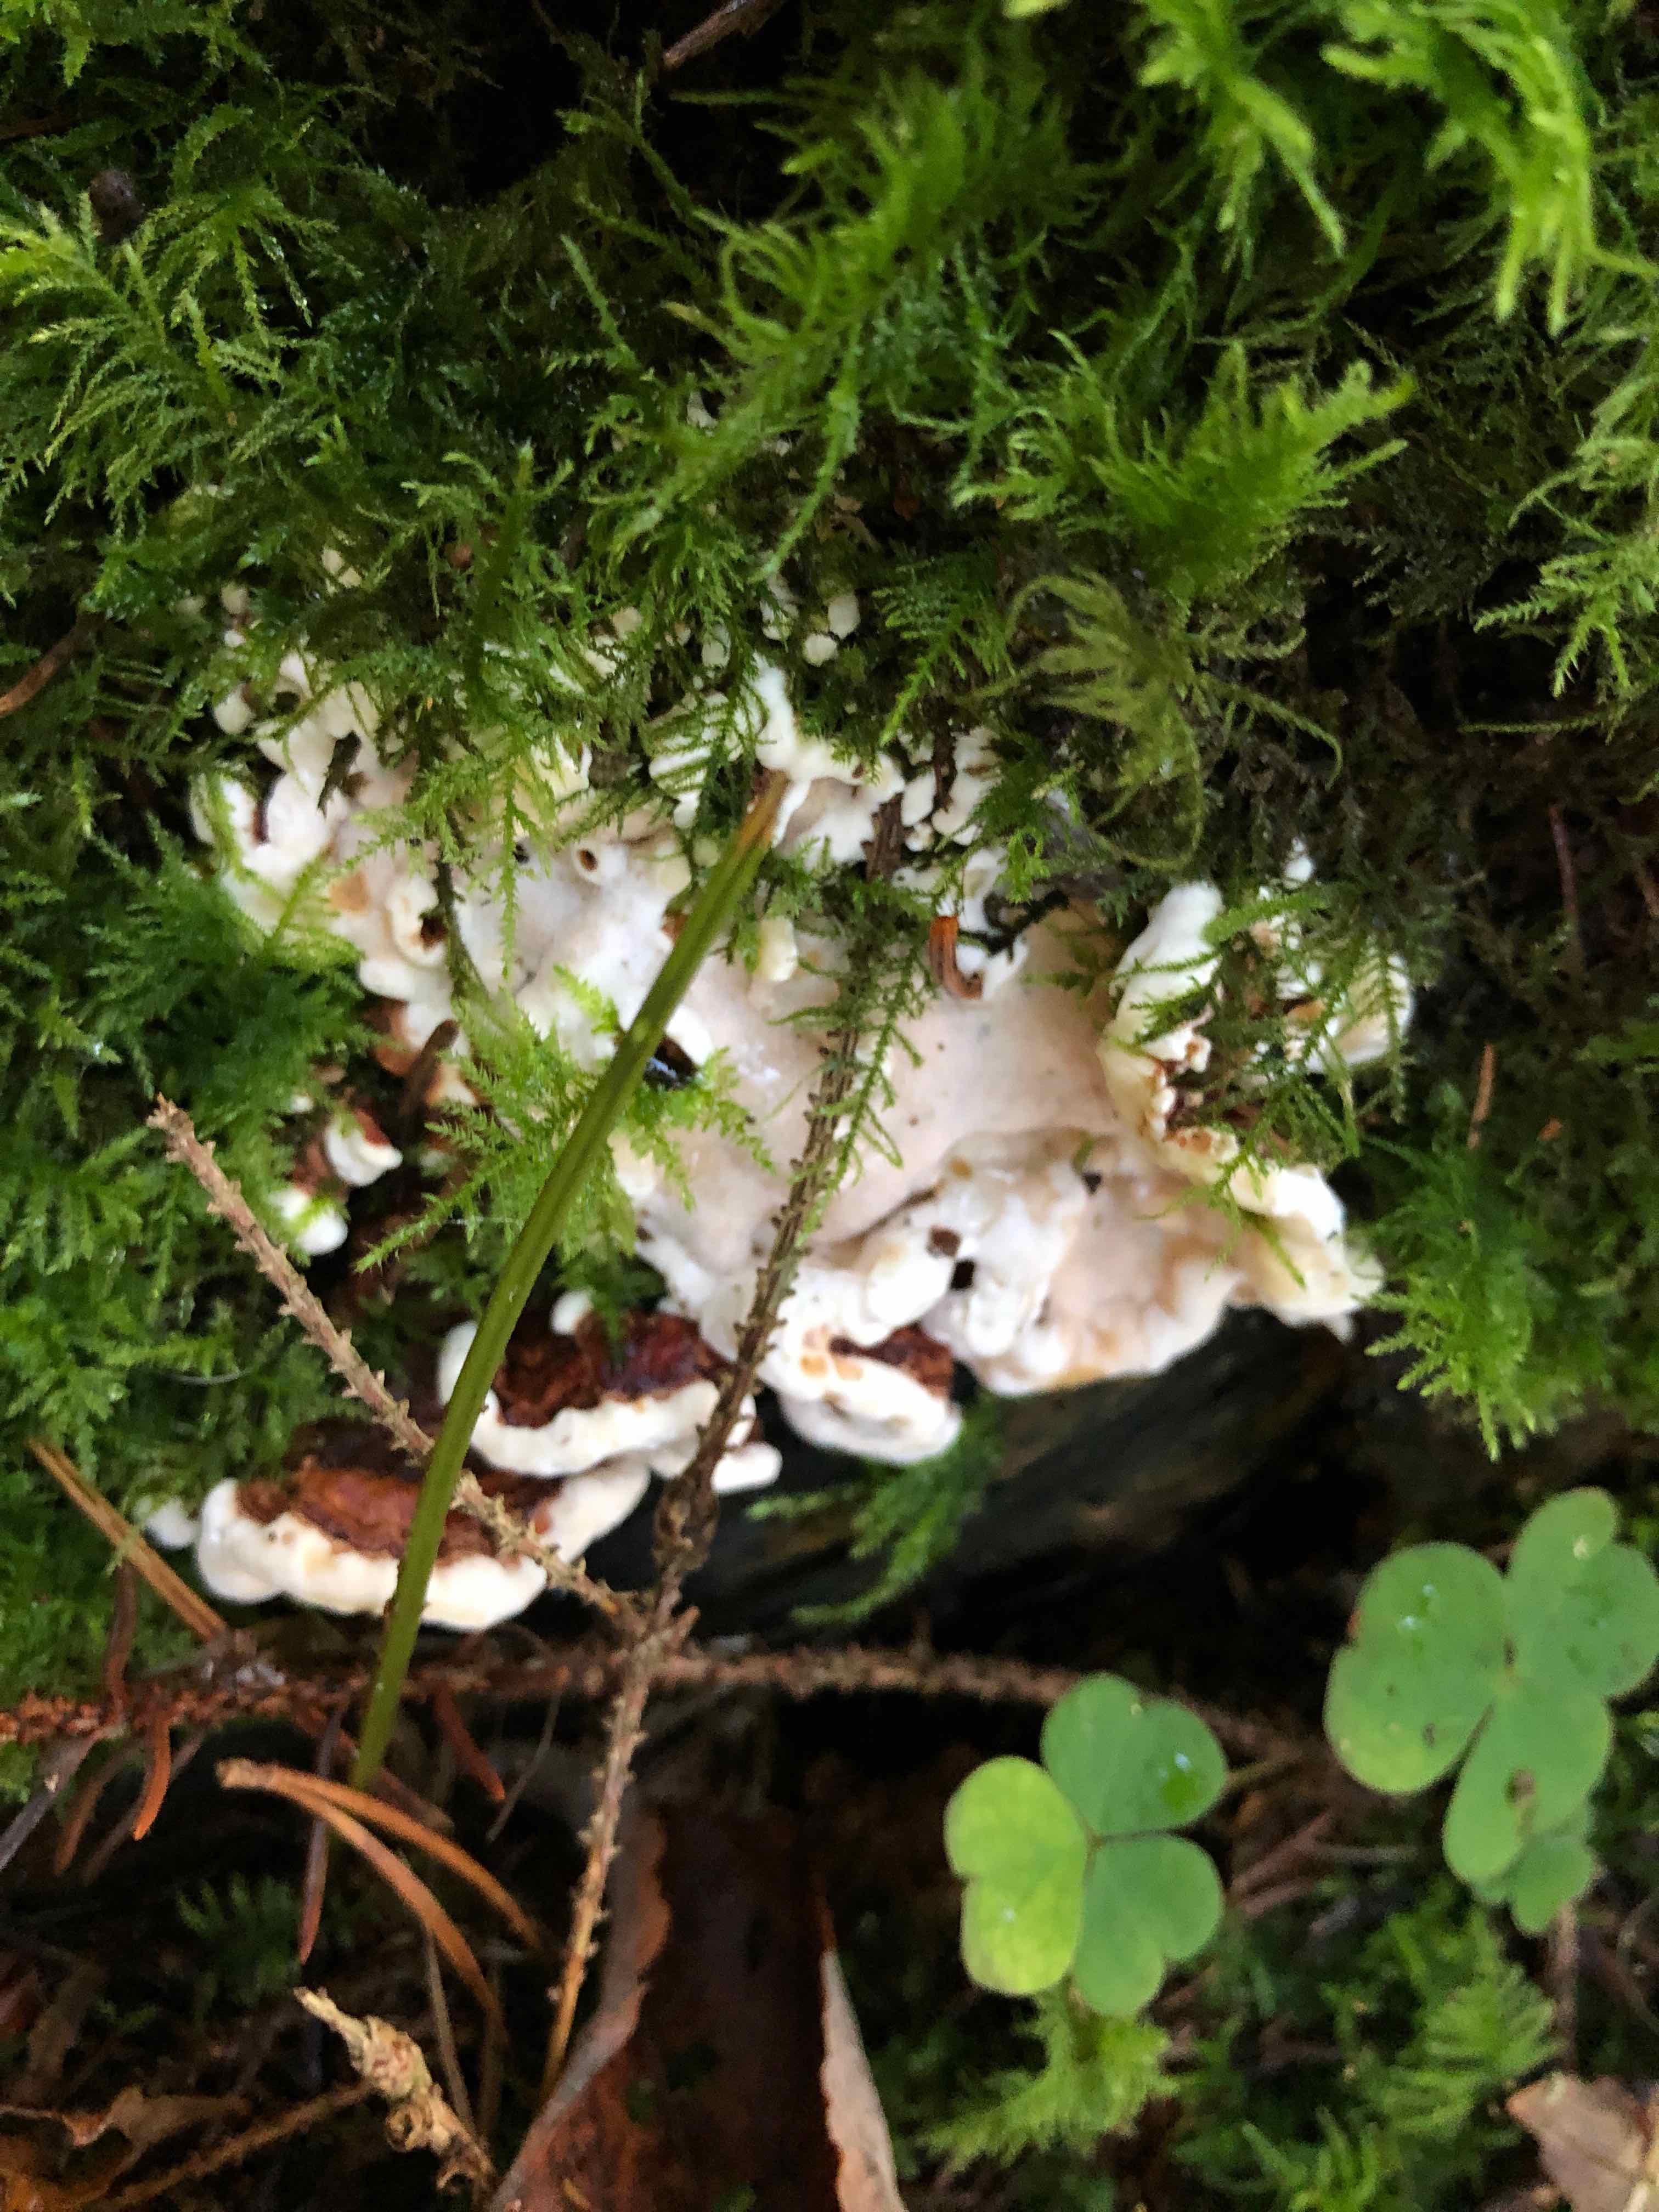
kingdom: Fungi
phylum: Basidiomycota
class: Agaricomycetes
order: Russulales
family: Bondarzewiaceae
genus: Heterobasidion
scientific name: Heterobasidion annosum
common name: almindelig rodfordærver
